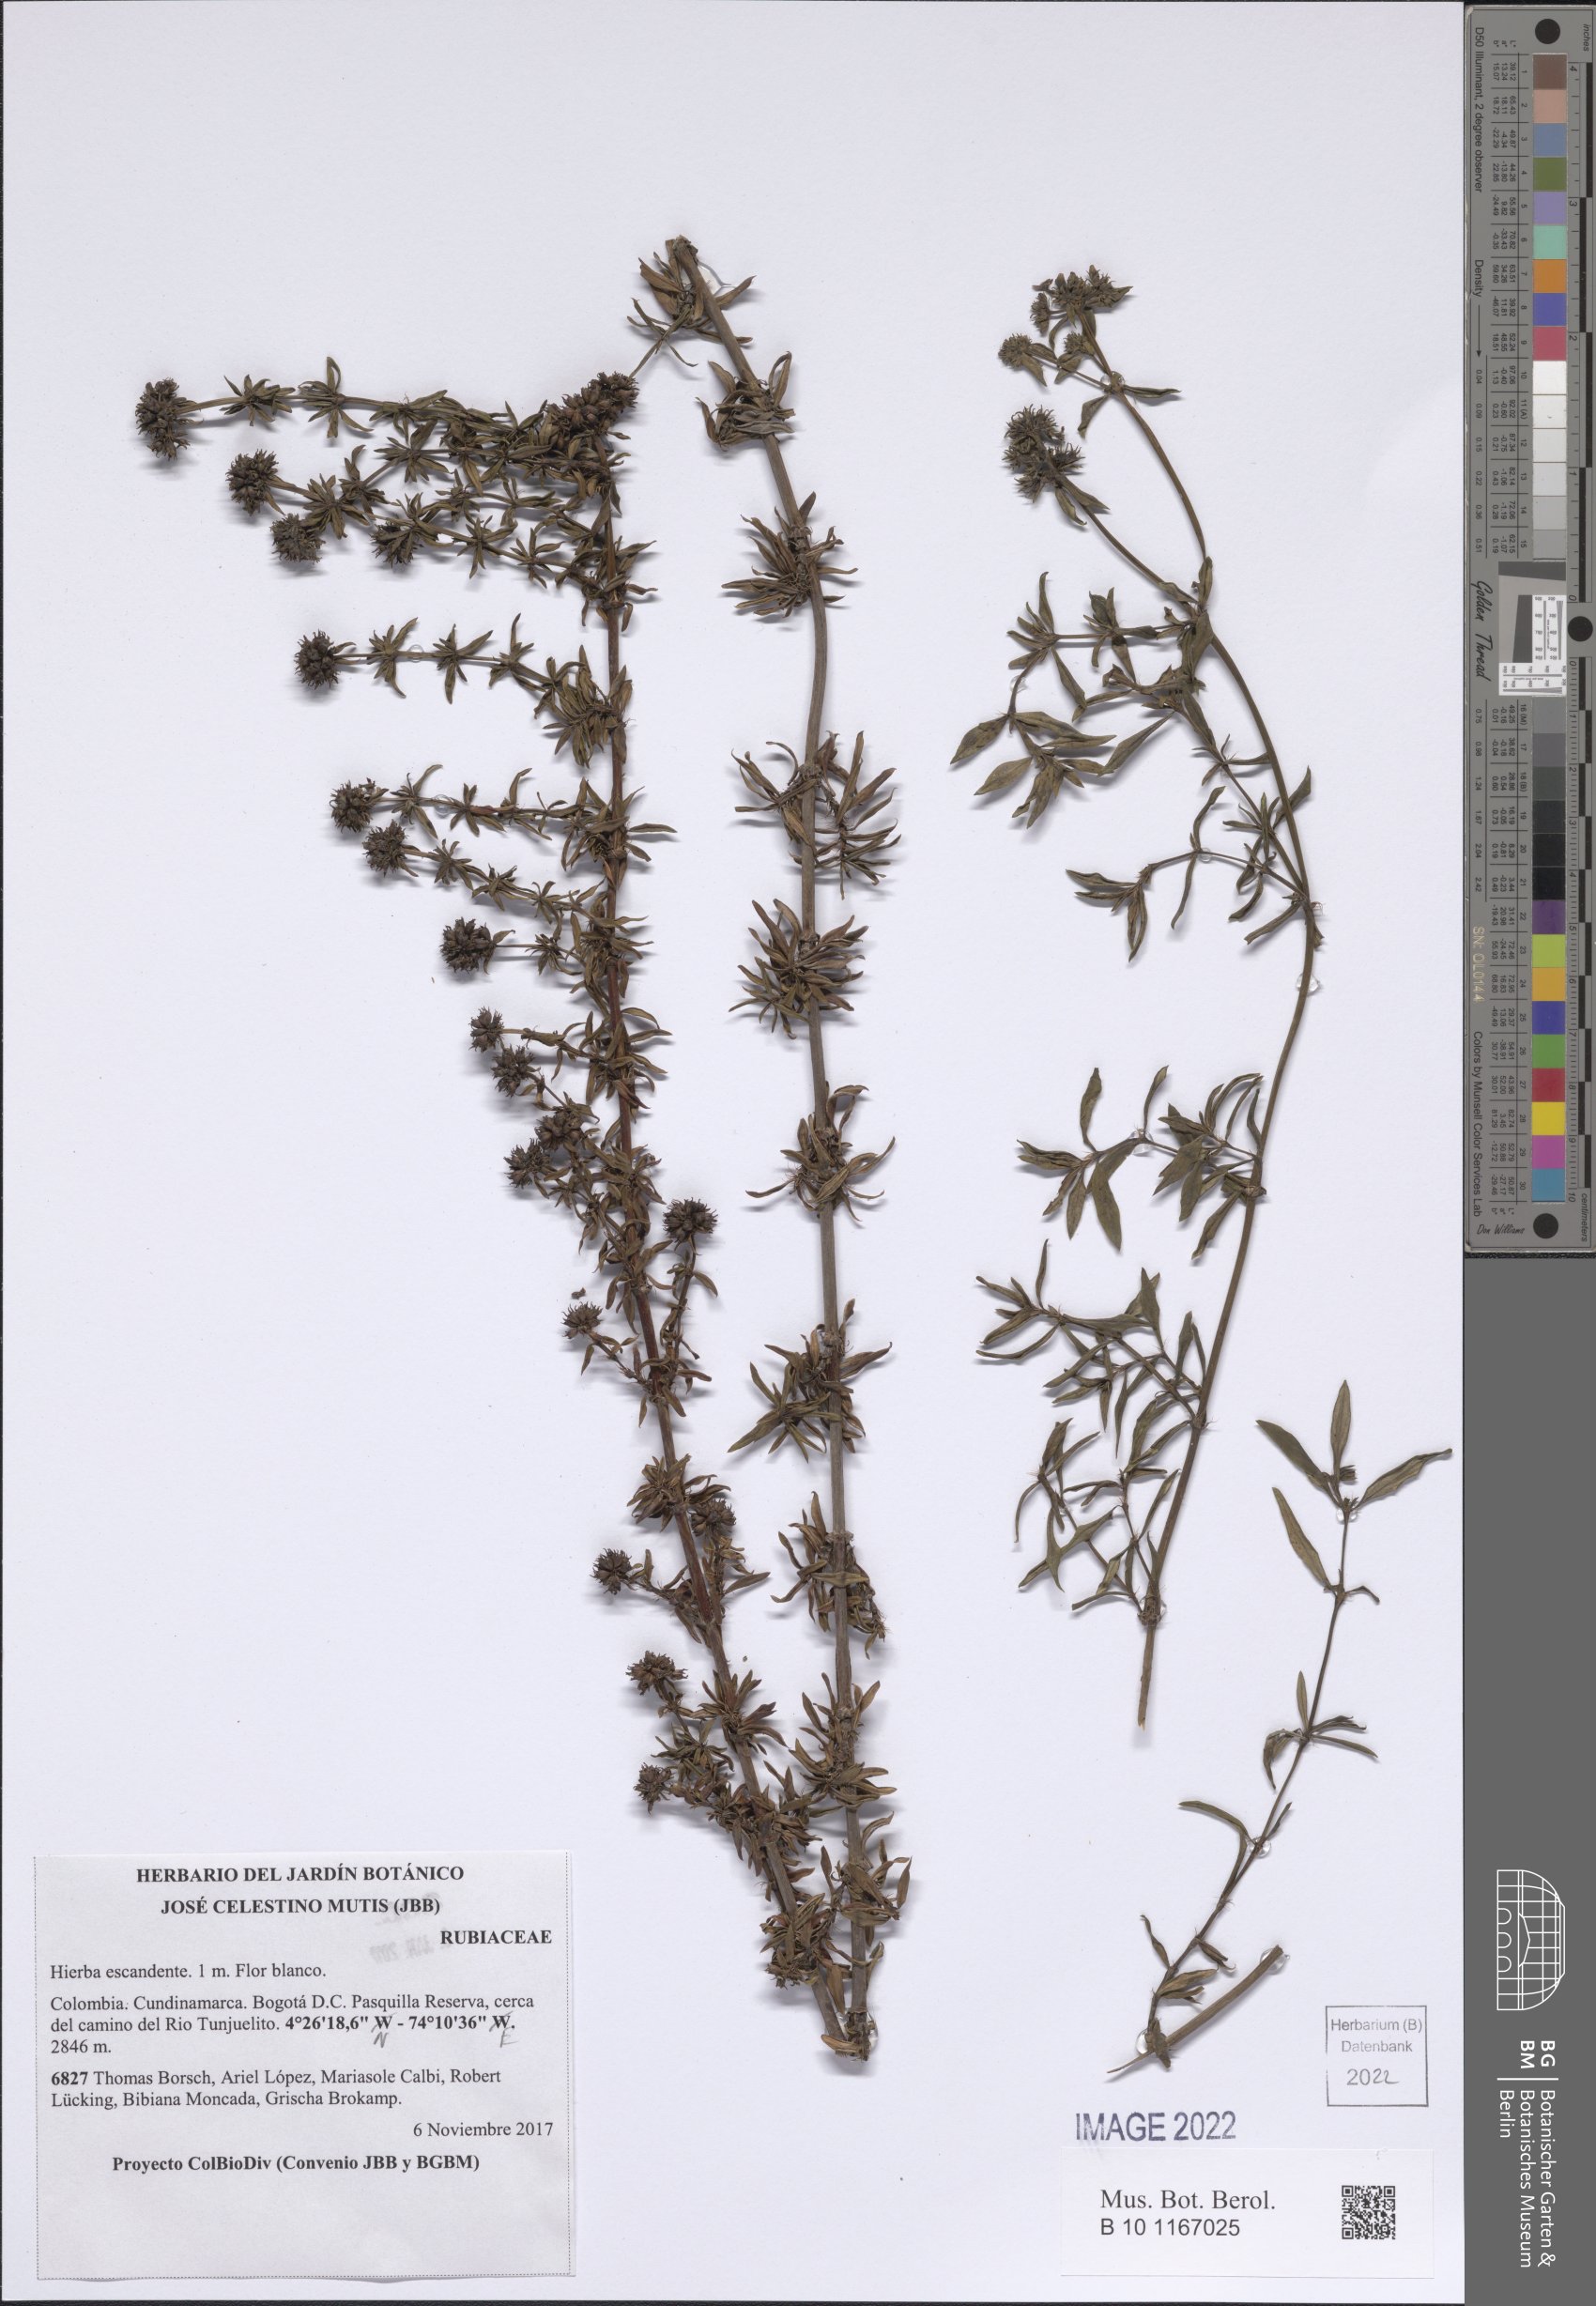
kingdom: Plantae
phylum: Tracheophyta
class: Magnoliopsida
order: Gentianales
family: Rubiaceae
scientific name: Rubiaceae
